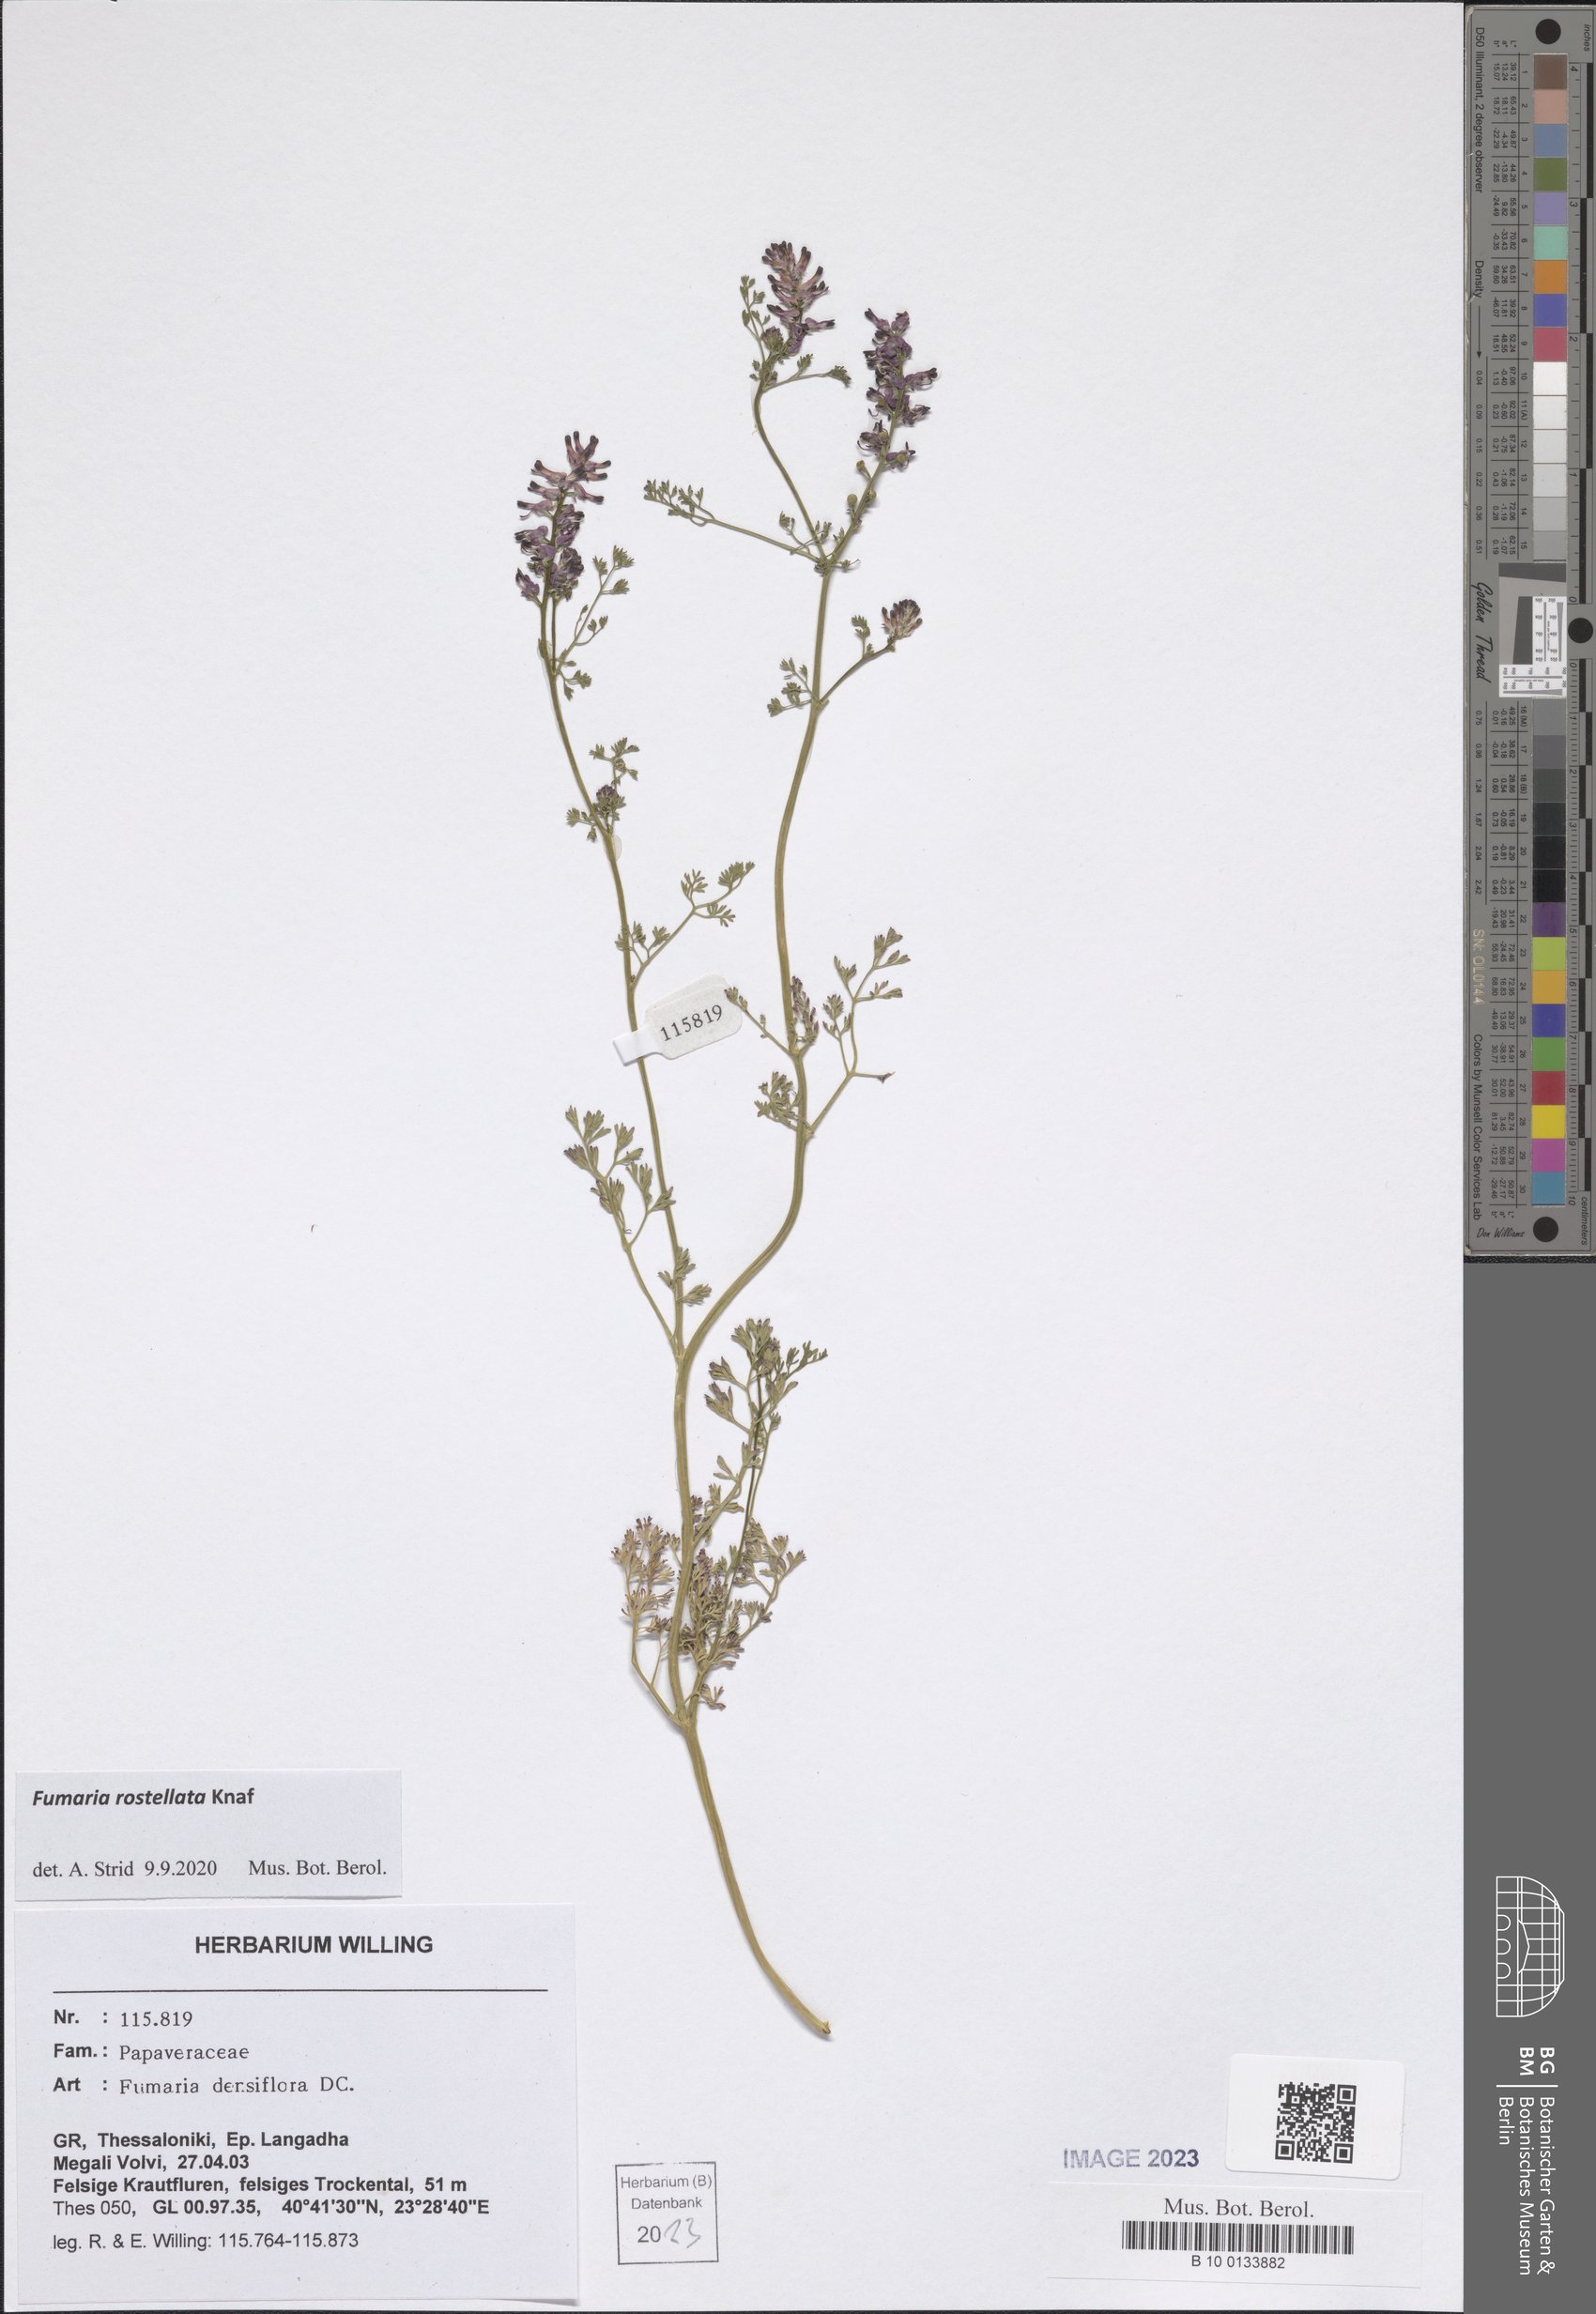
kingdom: Plantae
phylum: Tracheophyta
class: Magnoliopsida
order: Ranunculales
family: Papaveraceae
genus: Fumaria
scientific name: Fumaria rostellata
